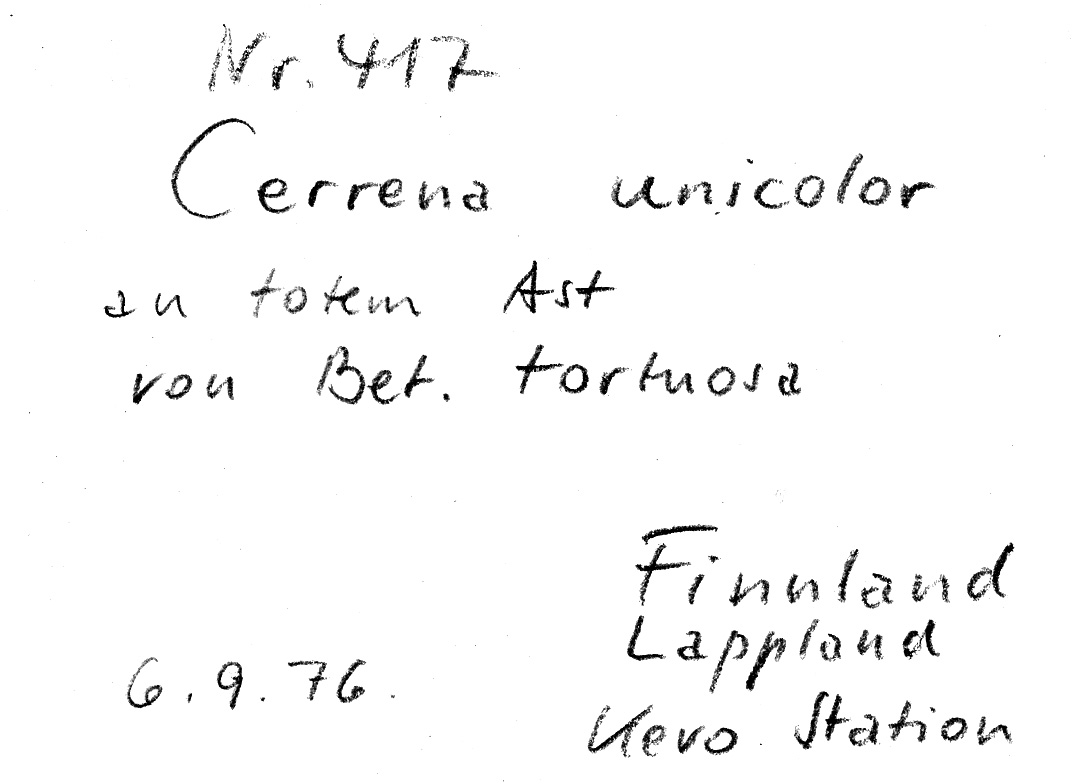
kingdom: Plantae
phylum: Tracheophyta
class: Magnoliopsida
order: Fagales
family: Betulaceae
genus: Betula
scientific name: Betula pubescens
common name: Downy birch
